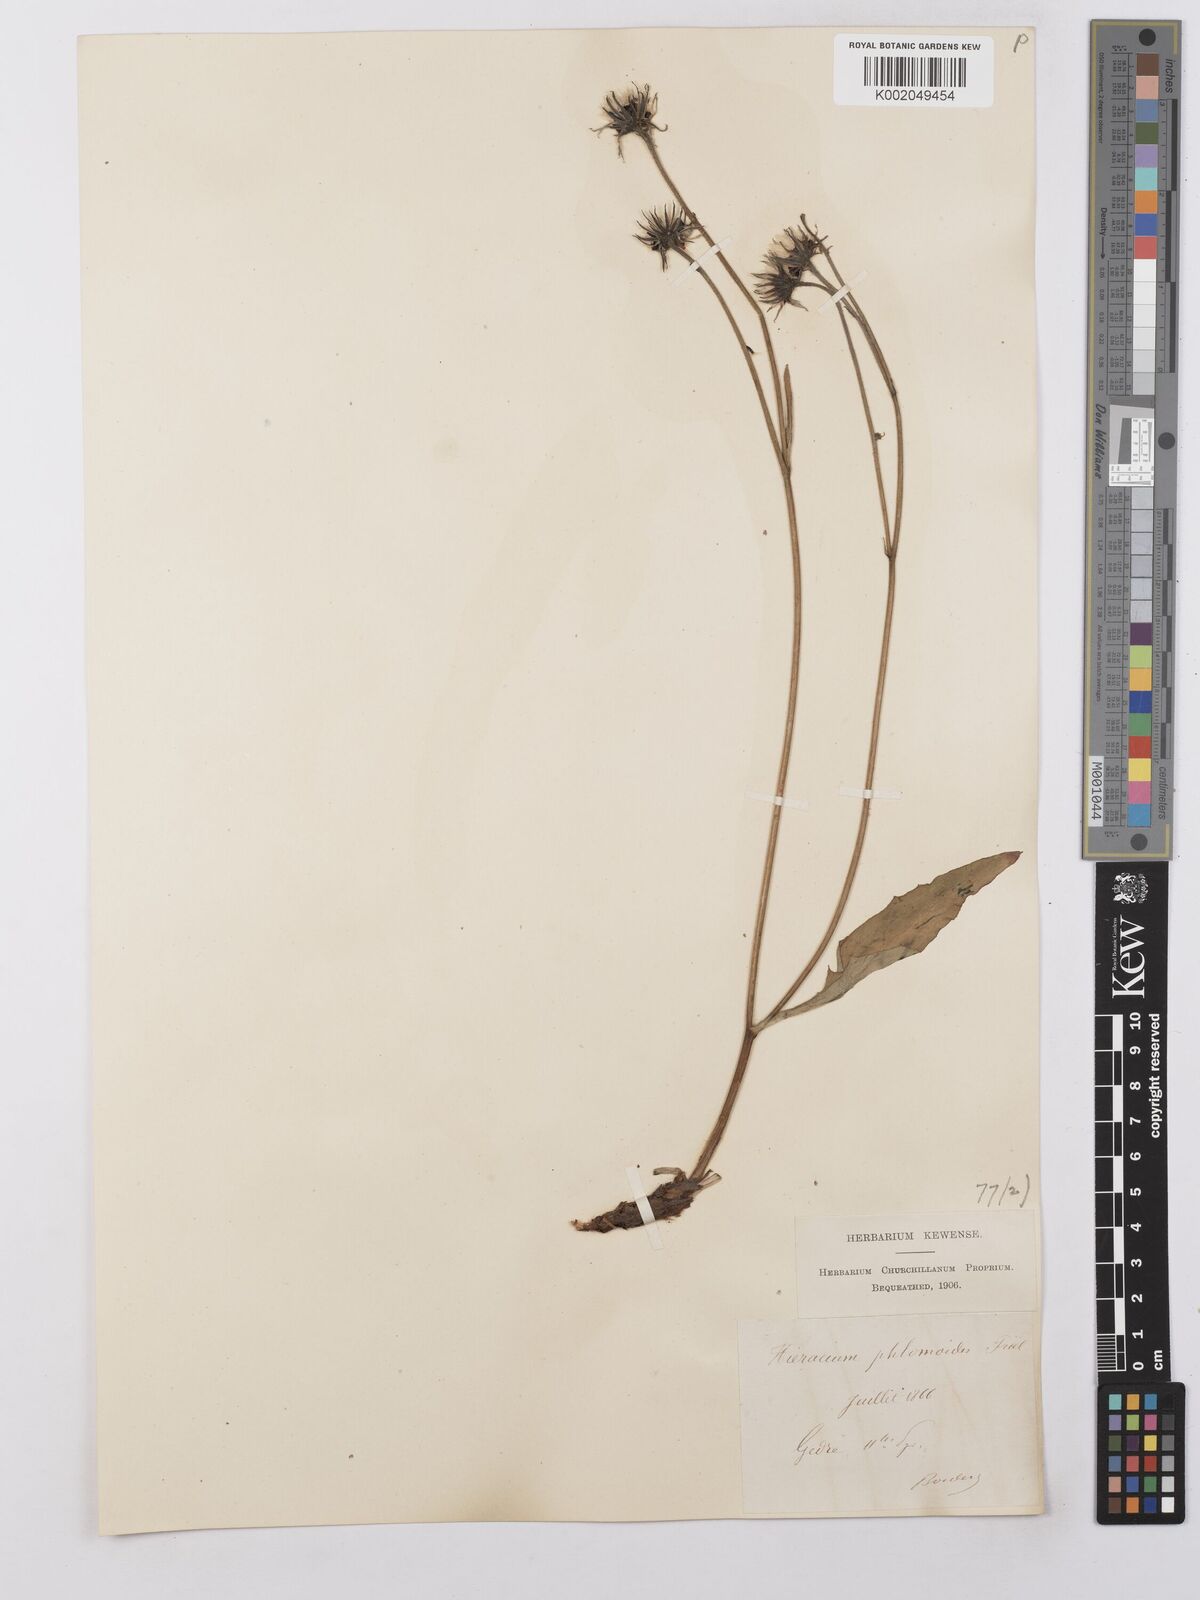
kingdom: Plantae
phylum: Tracheophyta
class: Magnoliopsida
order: Asterales
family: Asteraceae
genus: Hieracium
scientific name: Hieracium ramondii
